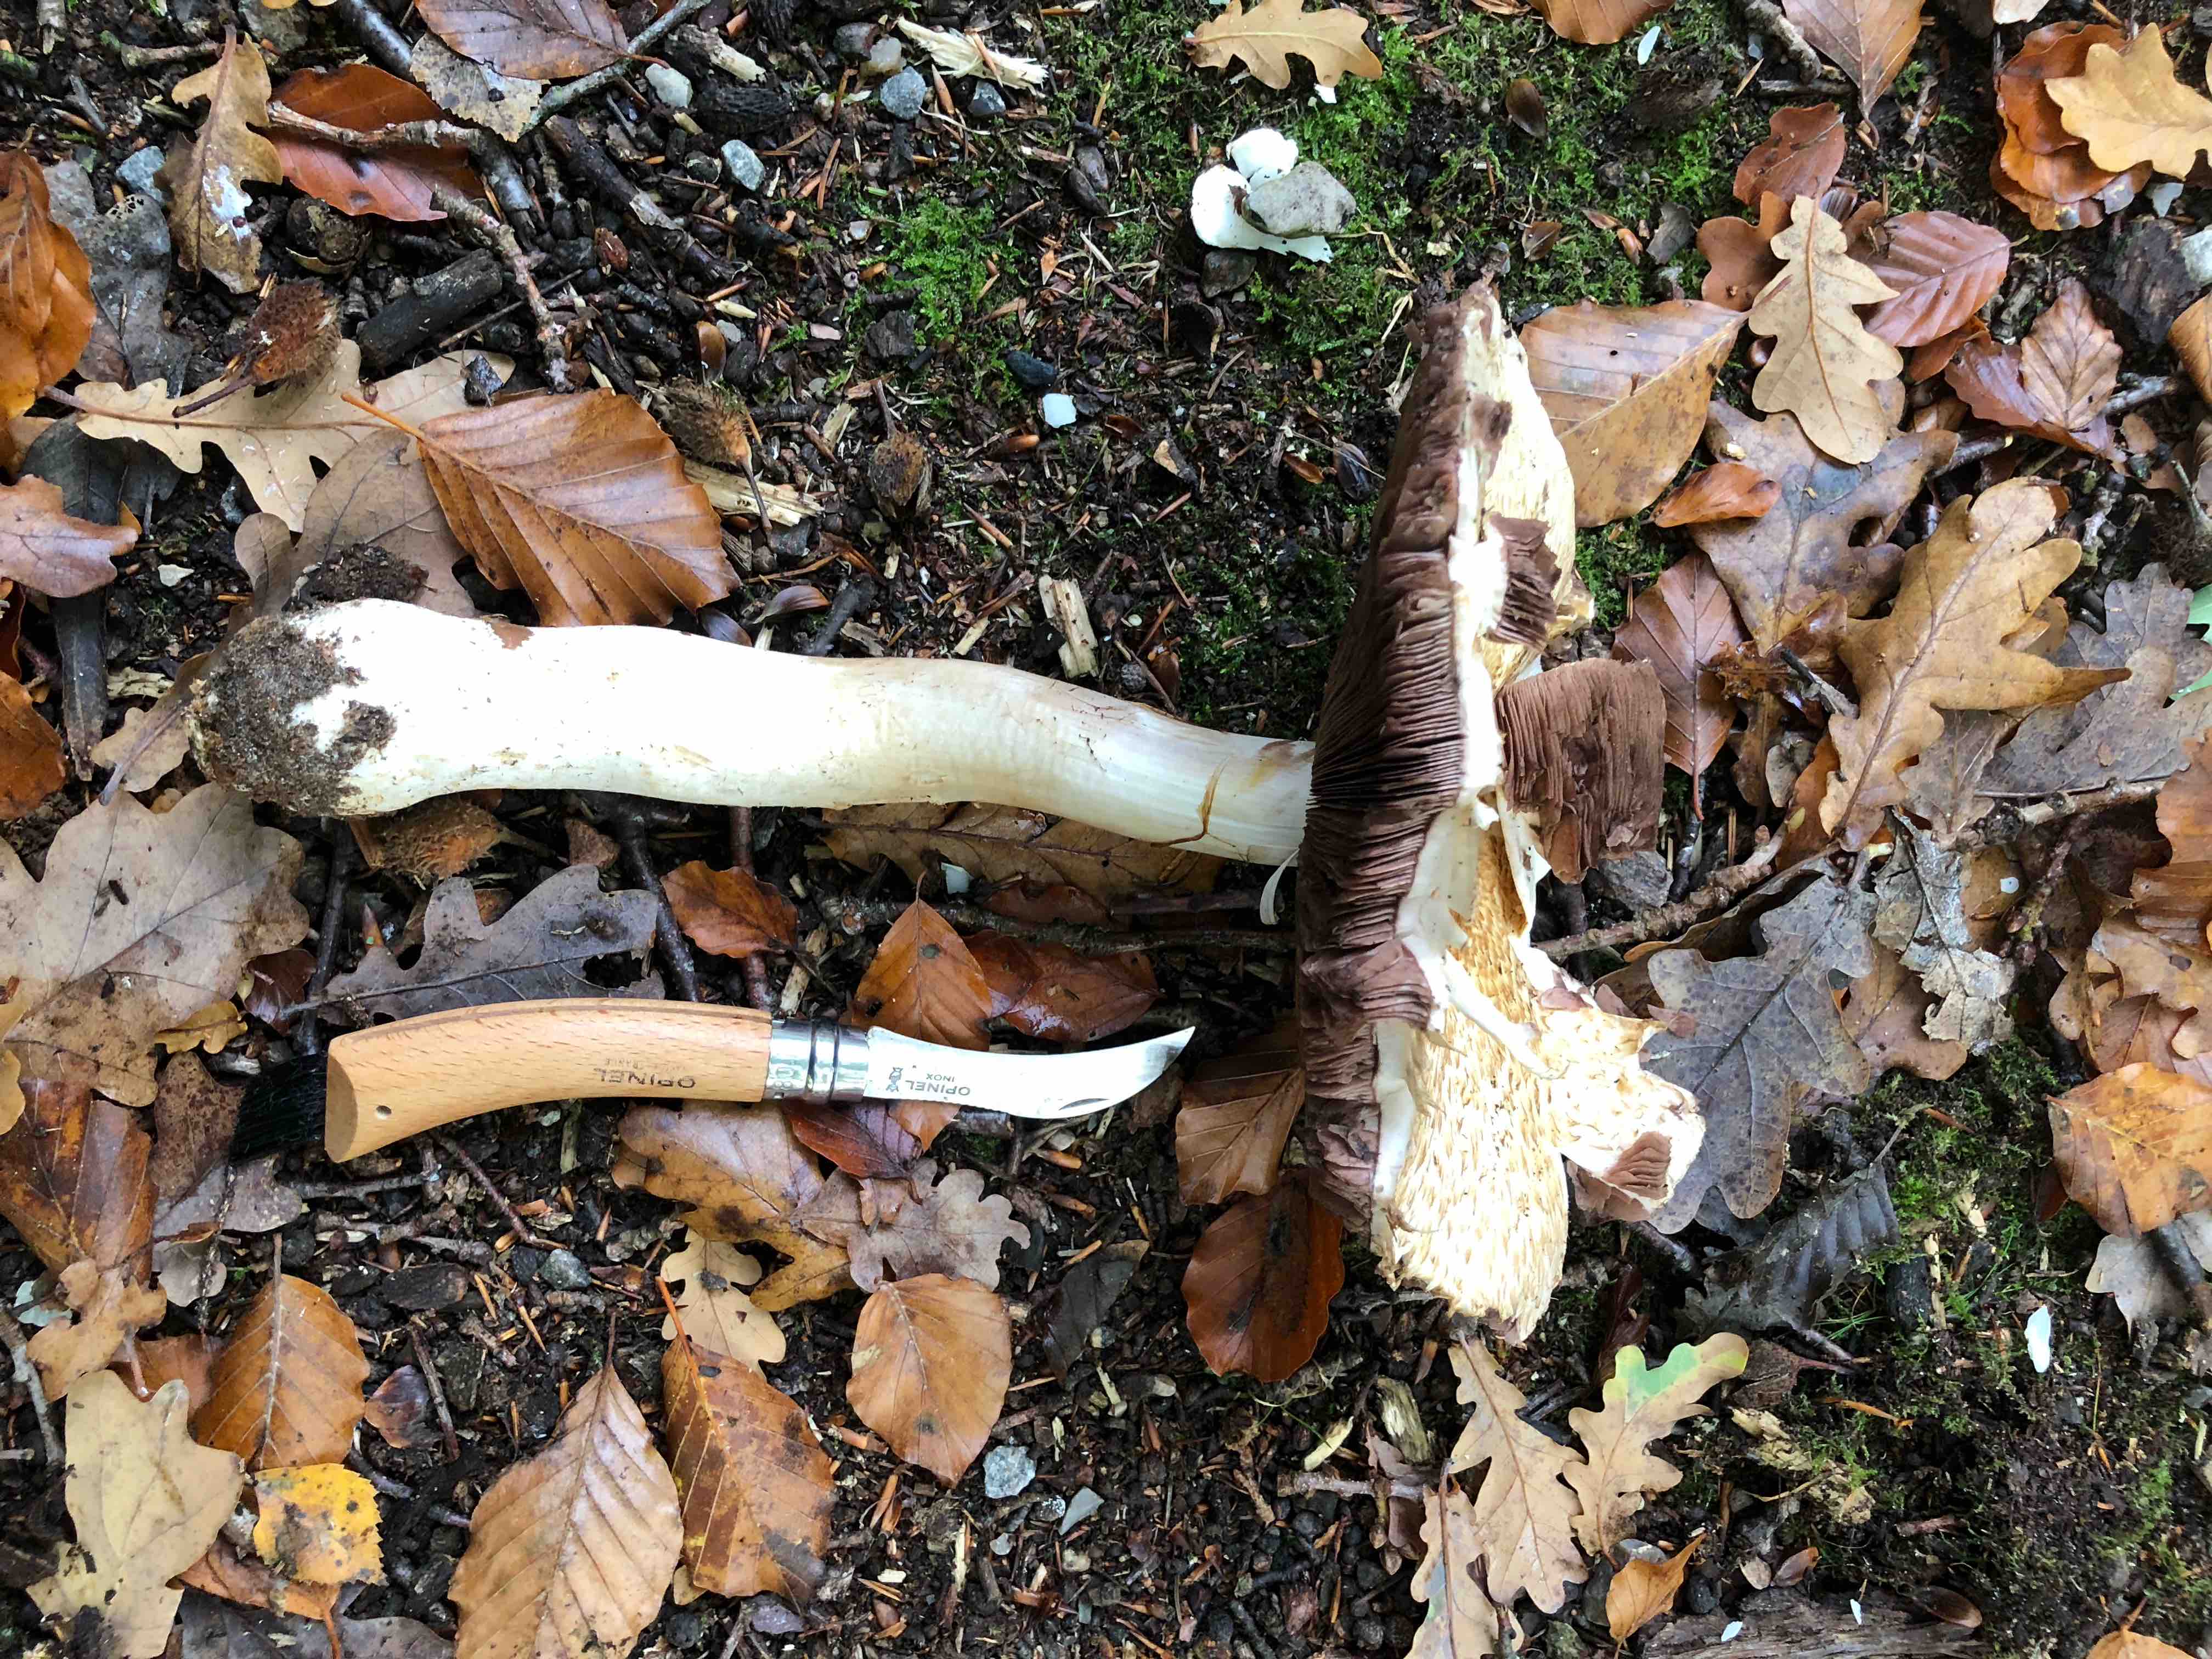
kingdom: Fungi
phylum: Basidiomycota
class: Agaricomycetes
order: Agaricales
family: Agaricaceae
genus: Agaricus
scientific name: Agaricus augustus
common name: prægtig champignon
